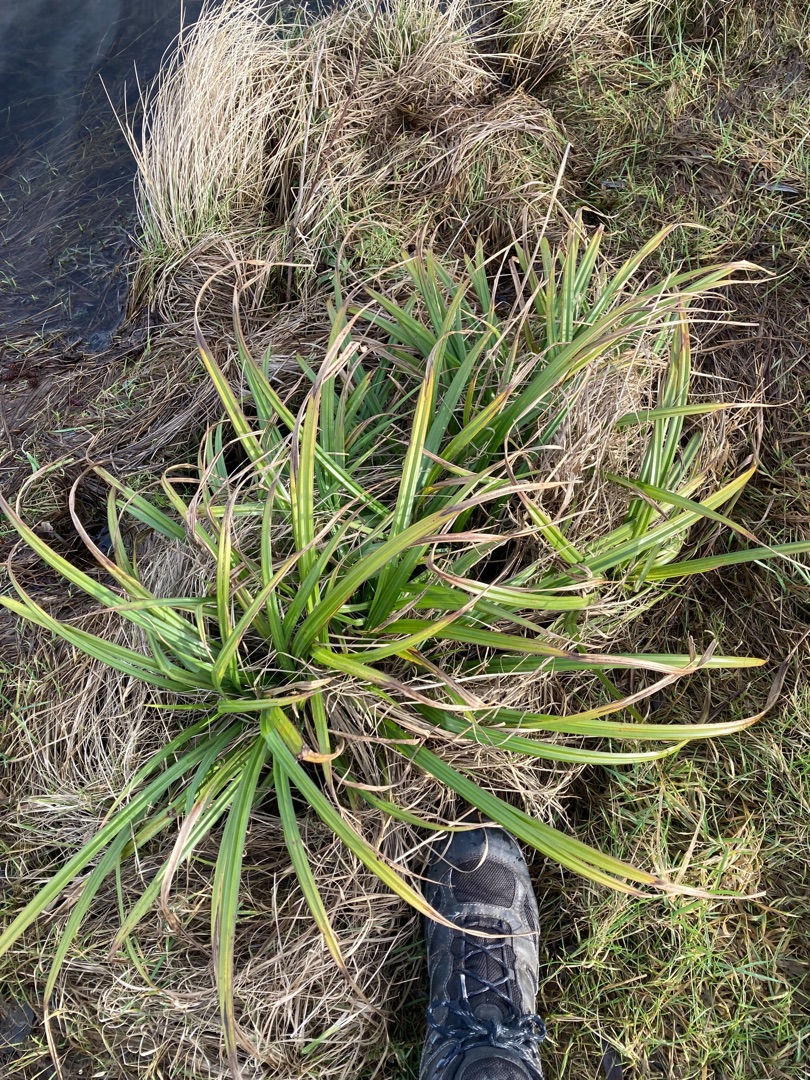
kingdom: Plantae
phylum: Tracheophyta
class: Liliopsida
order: Poales
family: Cyperaceae
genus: Carex
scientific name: Carex pendula
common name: Kæmpe-star
